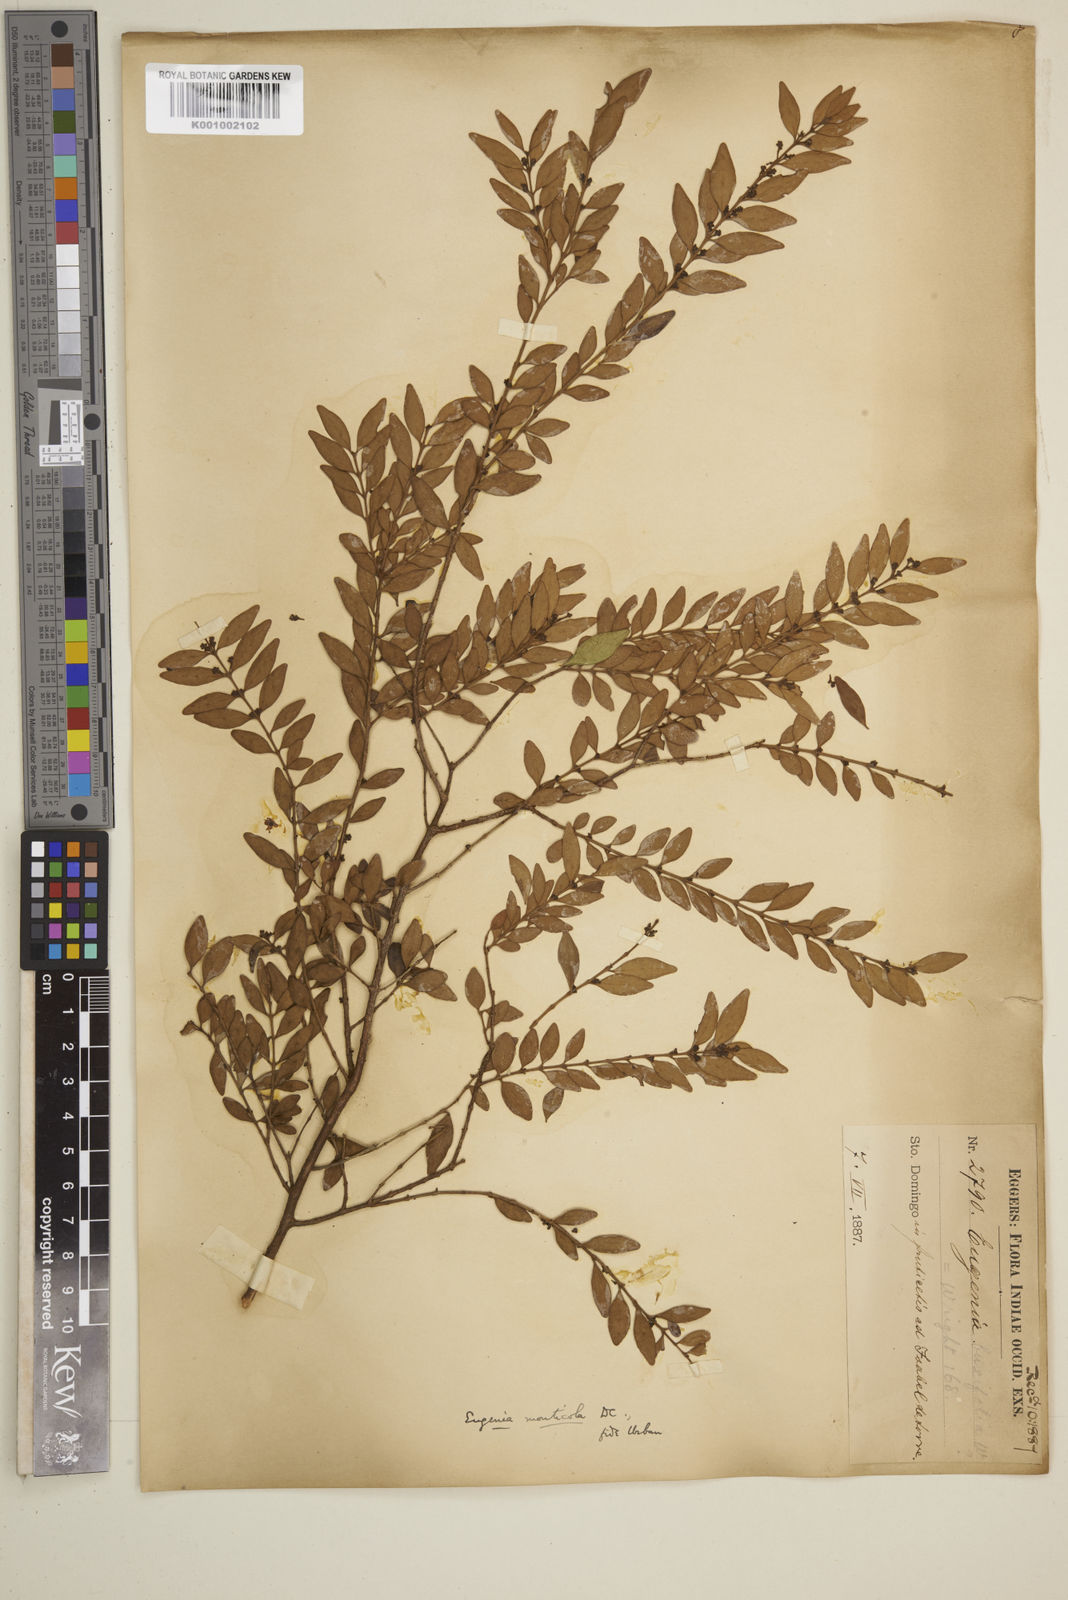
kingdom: Plantae
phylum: Tracheophyta
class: Magnoliopsida
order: Myrtales
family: Myrtaceae
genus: Eugenia
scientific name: Eugenia monticola
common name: Birds berry
